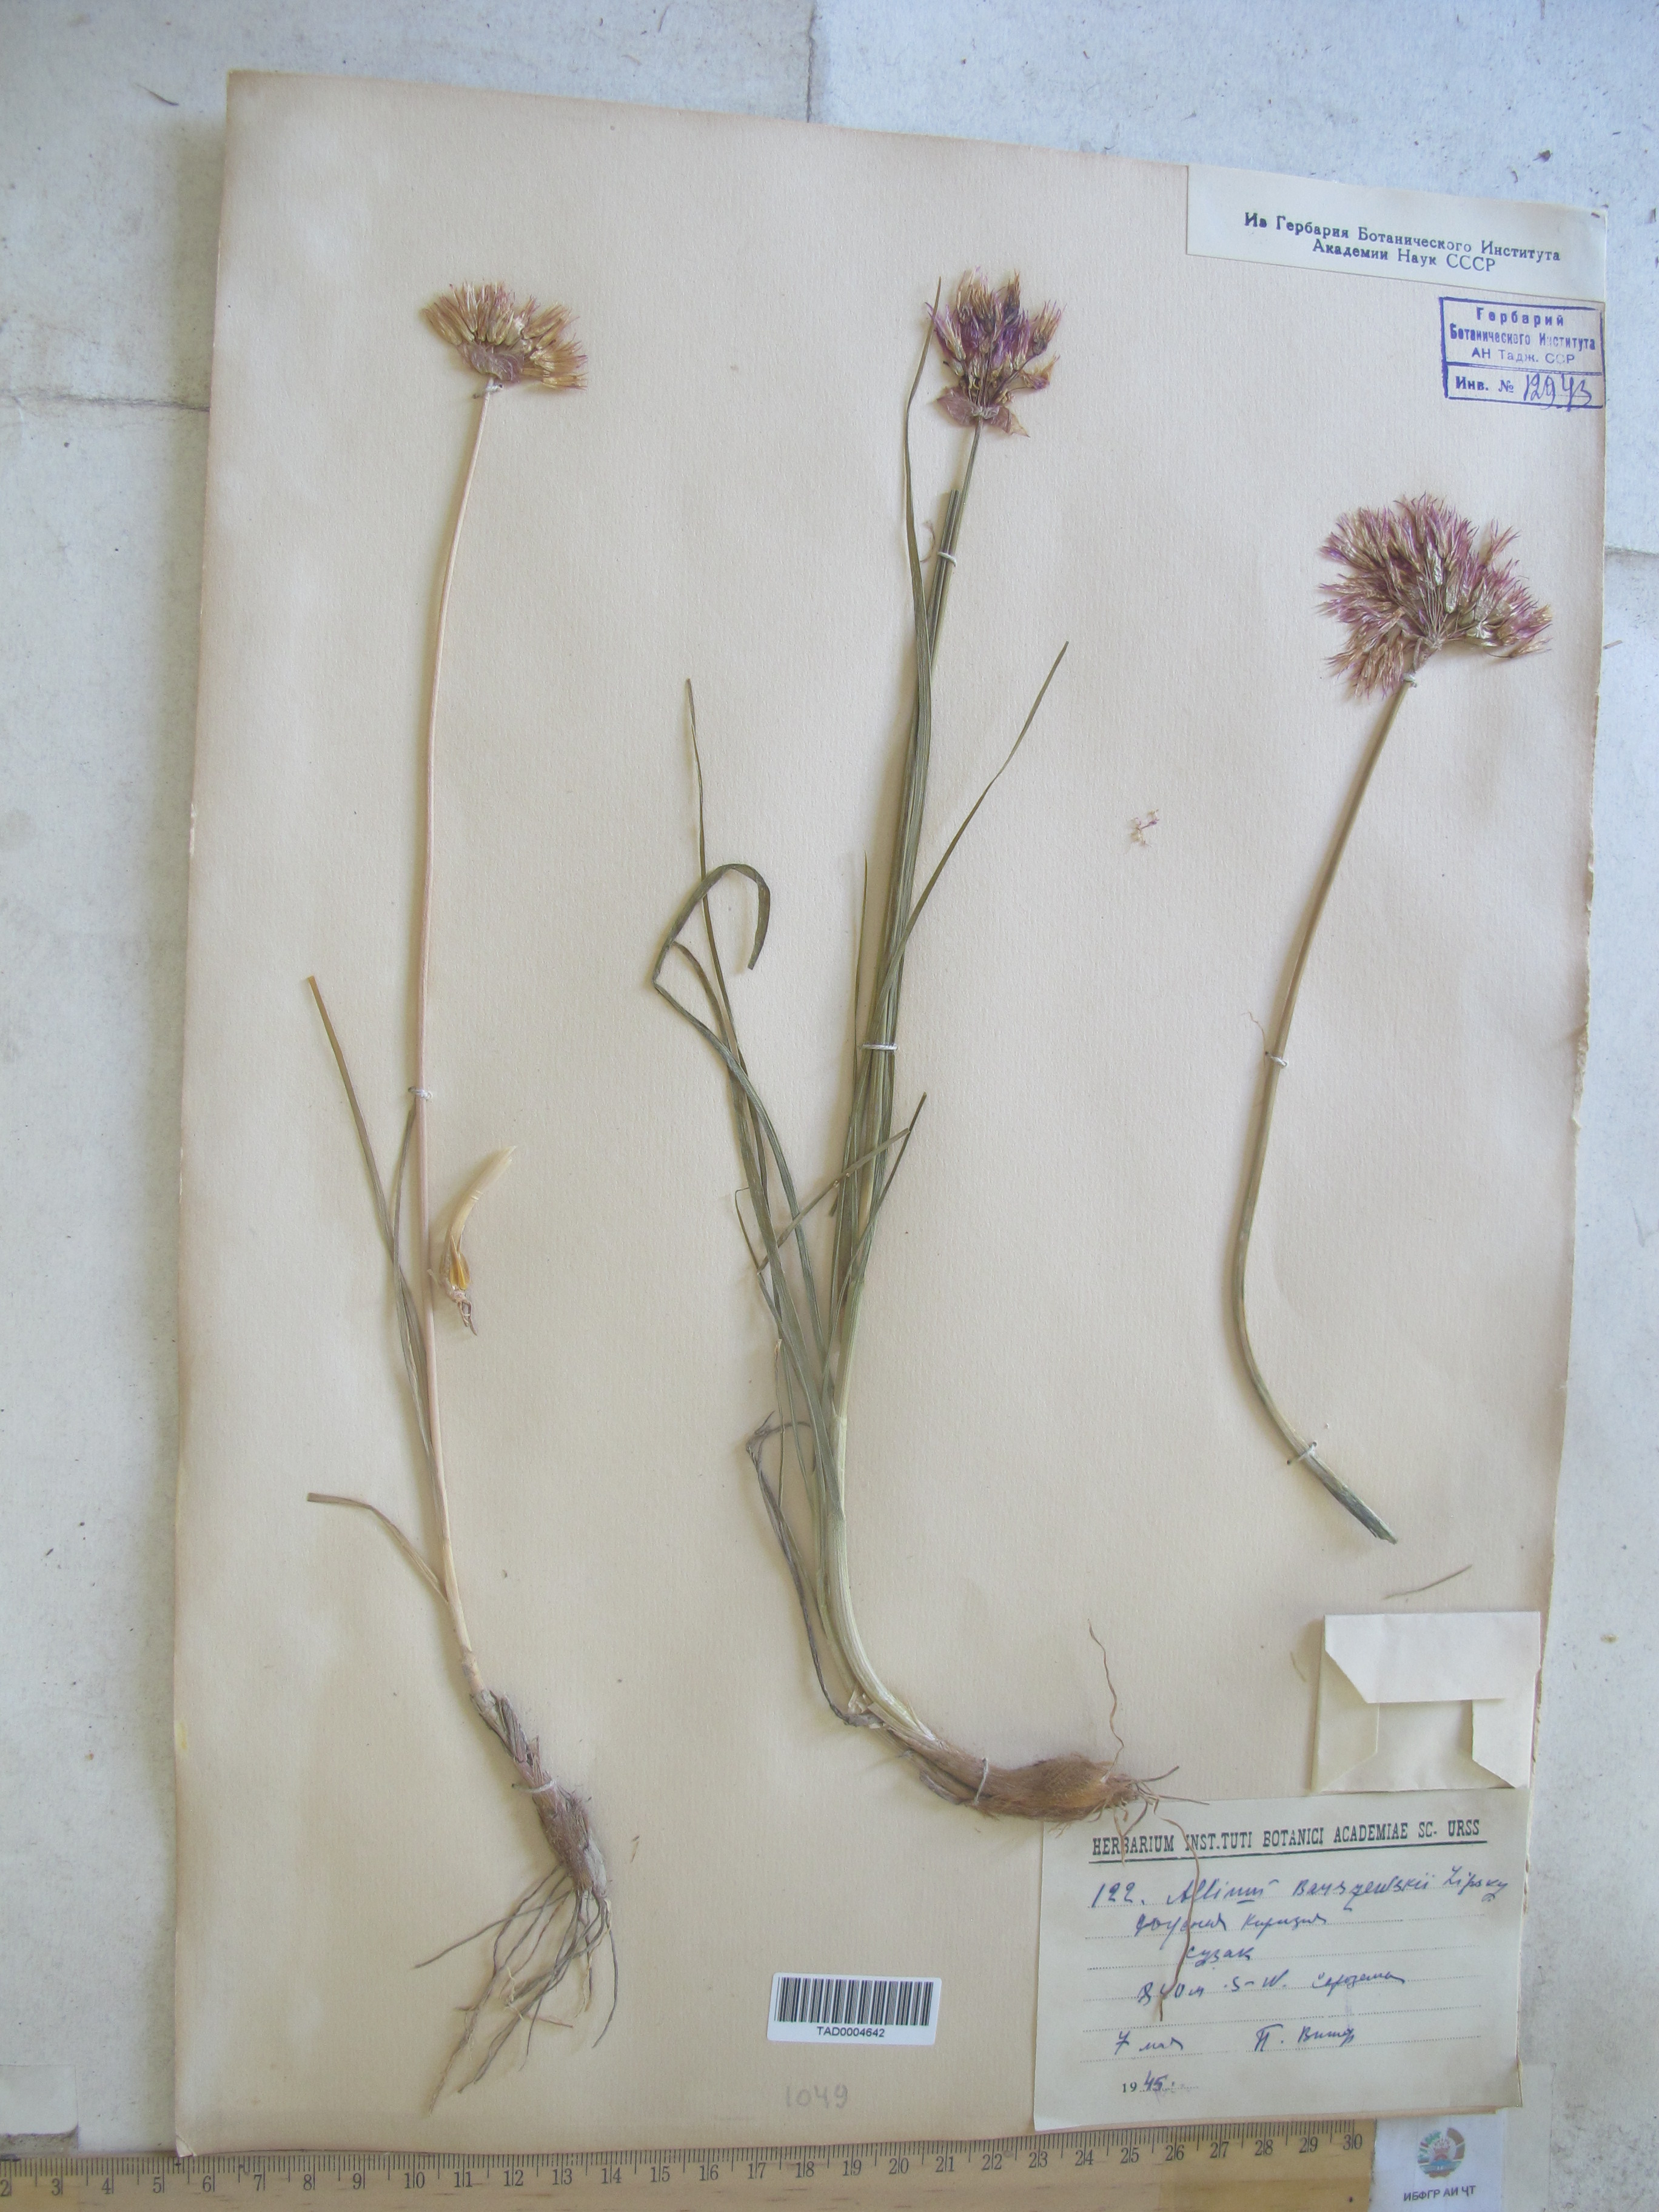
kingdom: Plantae
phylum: Tracheophyta
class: Liliopsida
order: Asparagales
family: Amaryllidaceae
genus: Allium
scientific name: Allium barsczewskii
